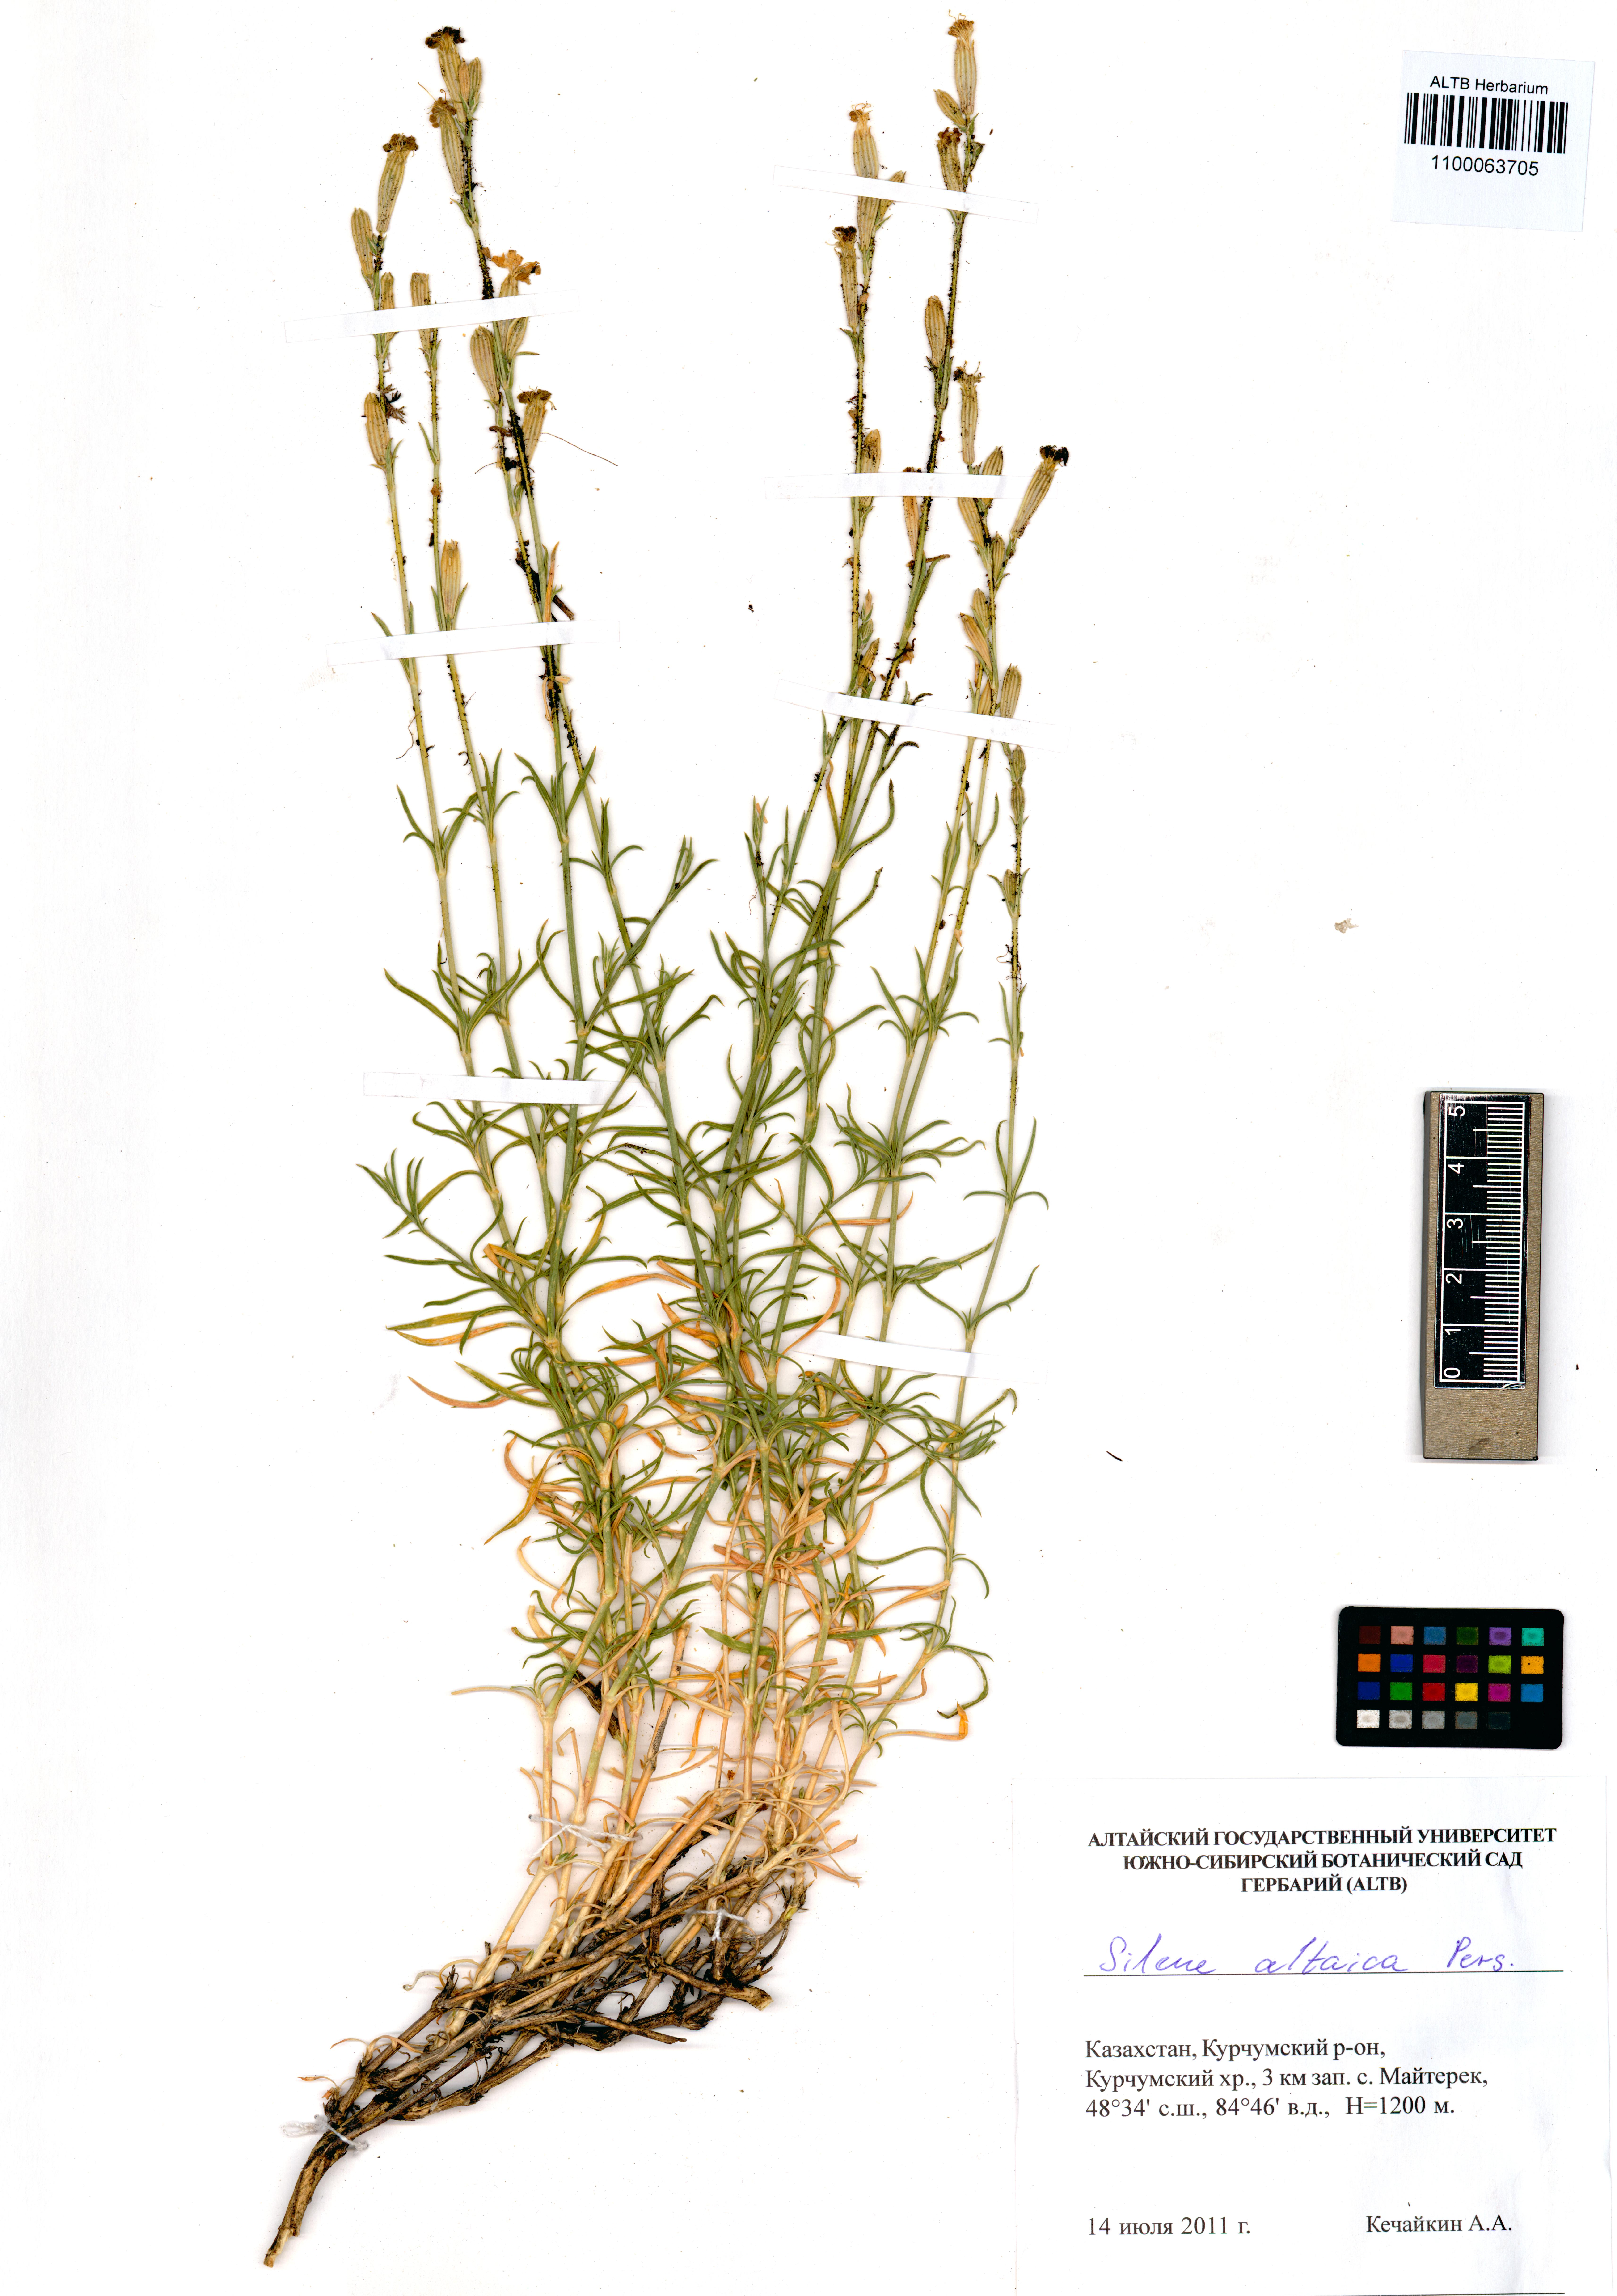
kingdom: Plantae
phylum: Tracheophyta
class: Magnoliopsida
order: Caryophyllales
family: Caryophyllaceae
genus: Silene
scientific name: Silene altaica
